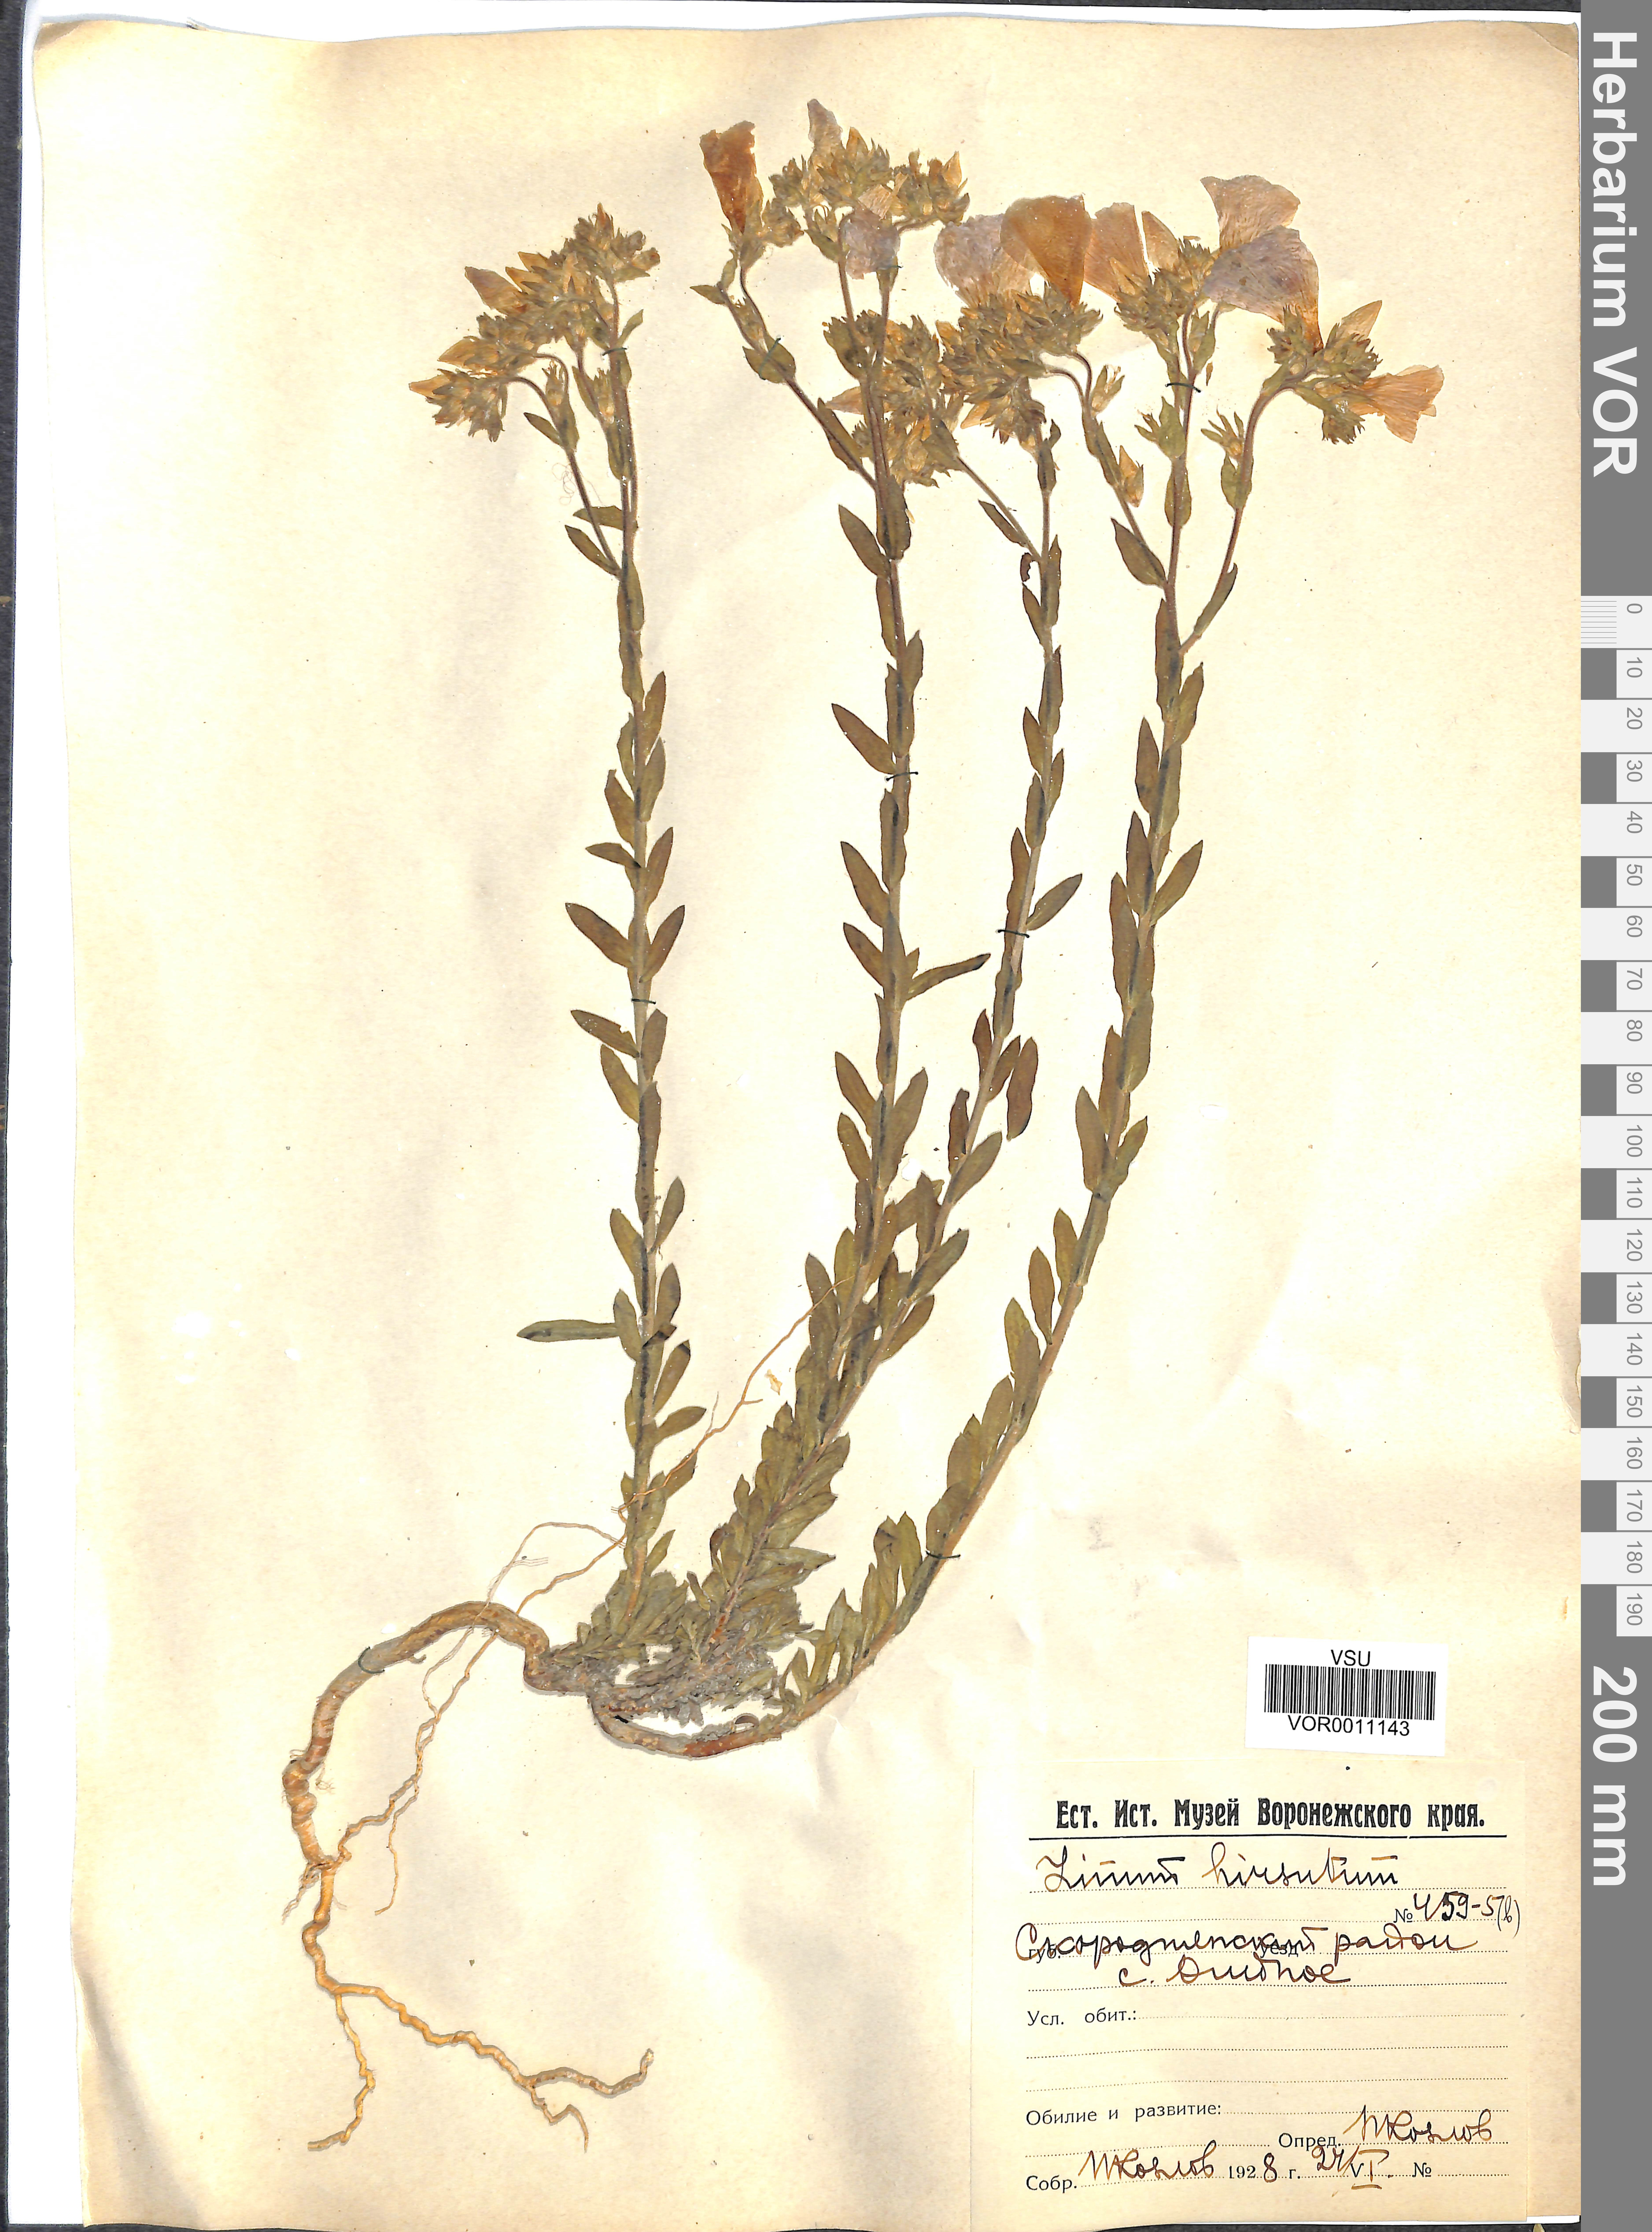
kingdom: Plantae
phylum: Tracheophyta
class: Magnoliopsida
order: Malpighiales
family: Linaceae
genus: Linum
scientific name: Linum hirsutum
